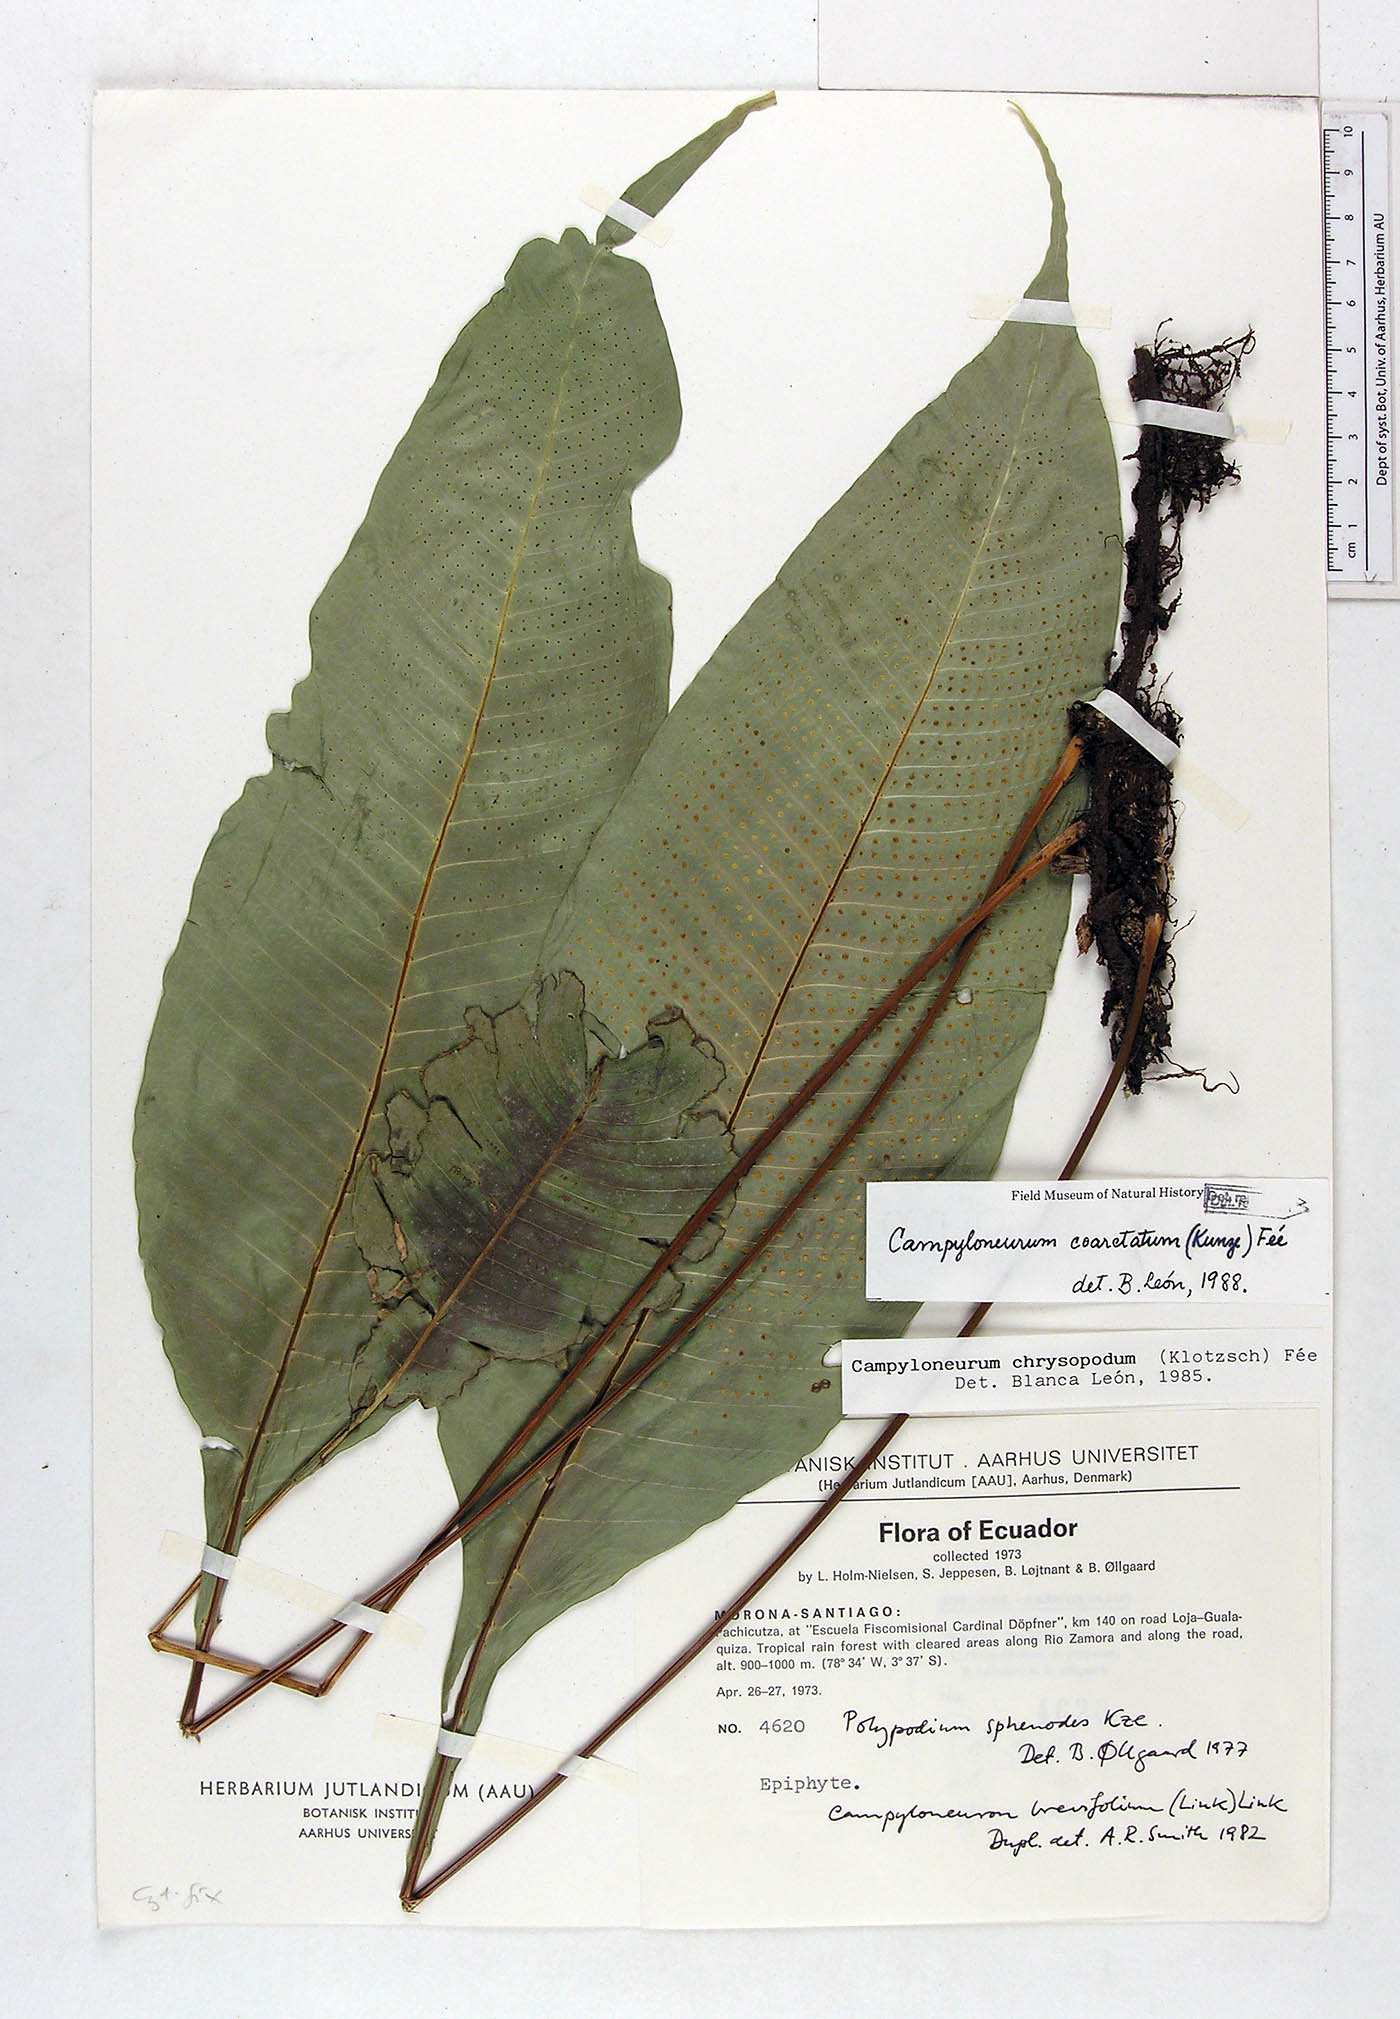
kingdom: Plantae
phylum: Tracheophyta
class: Polypodiopsida
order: Polypodiales
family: Polypodiaceae
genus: Campyloneurum
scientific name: Campyloneurum coarctatum
